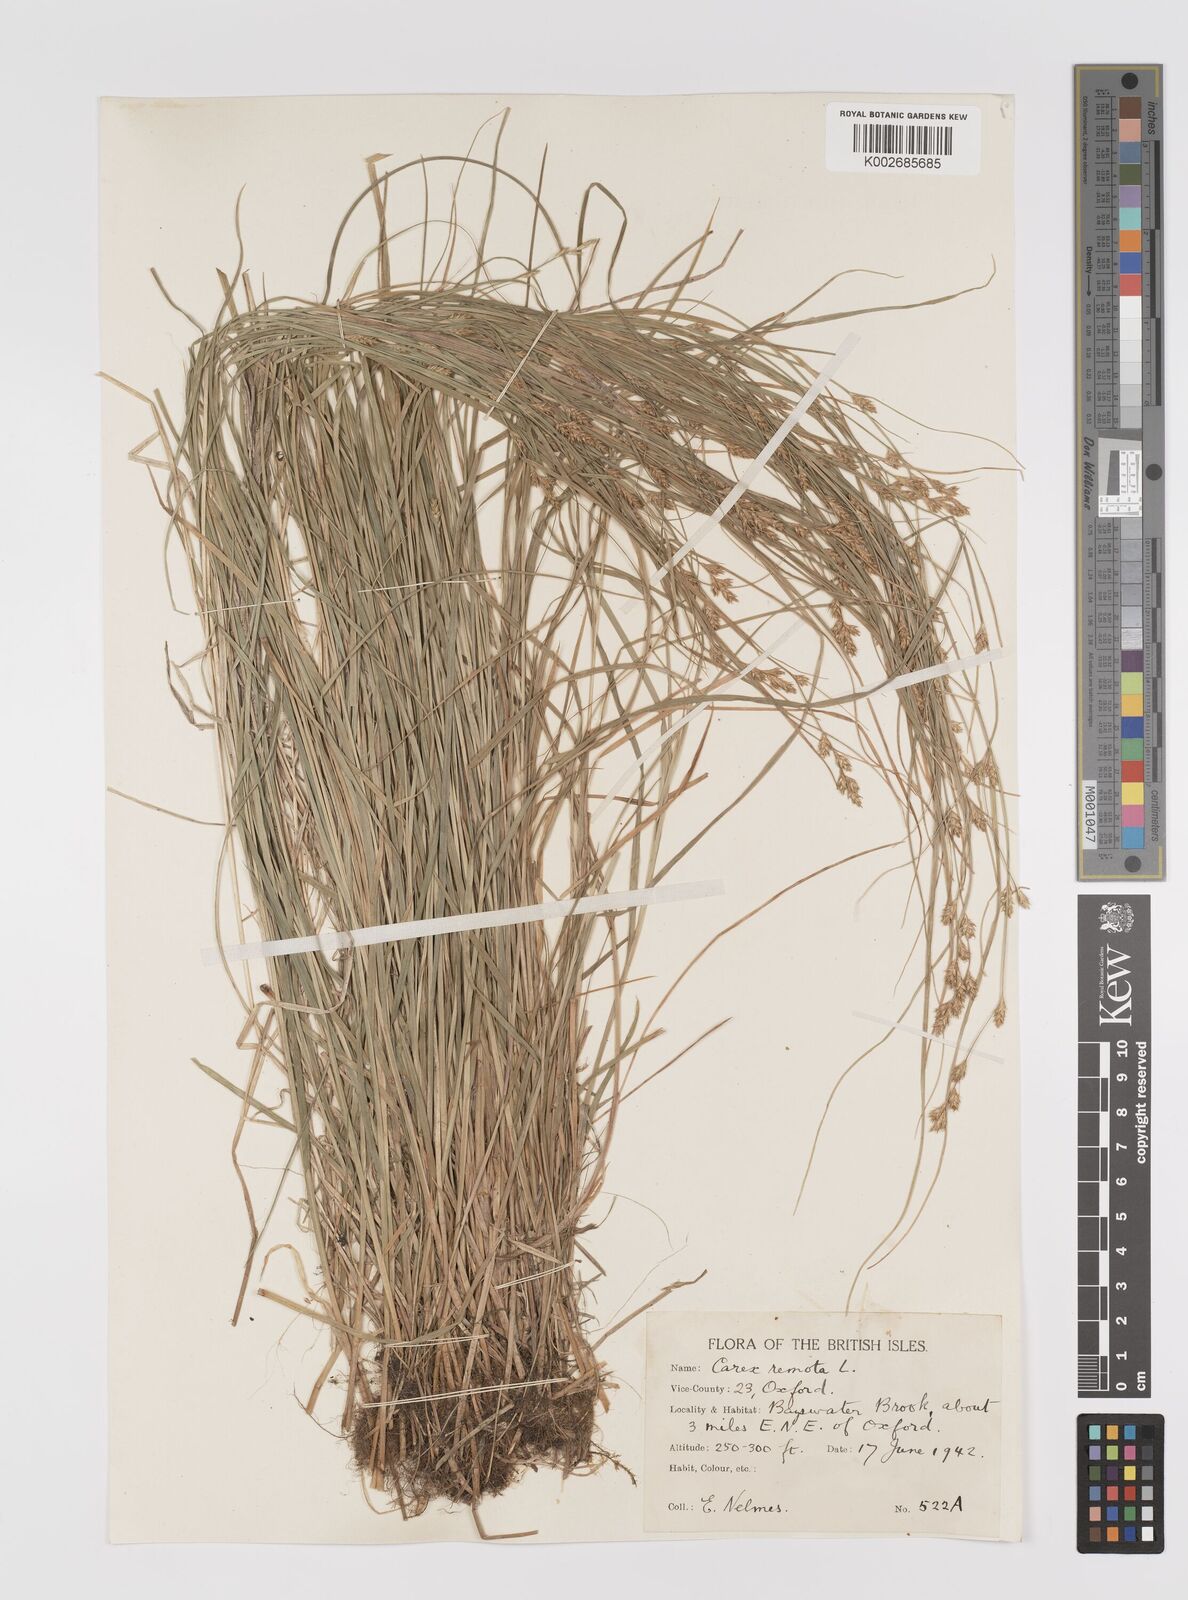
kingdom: Plantae
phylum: Tracheophyta
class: Liliopsida
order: Poales
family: Cyperaceae
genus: Carex
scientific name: Carex remota
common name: Remote sedge
